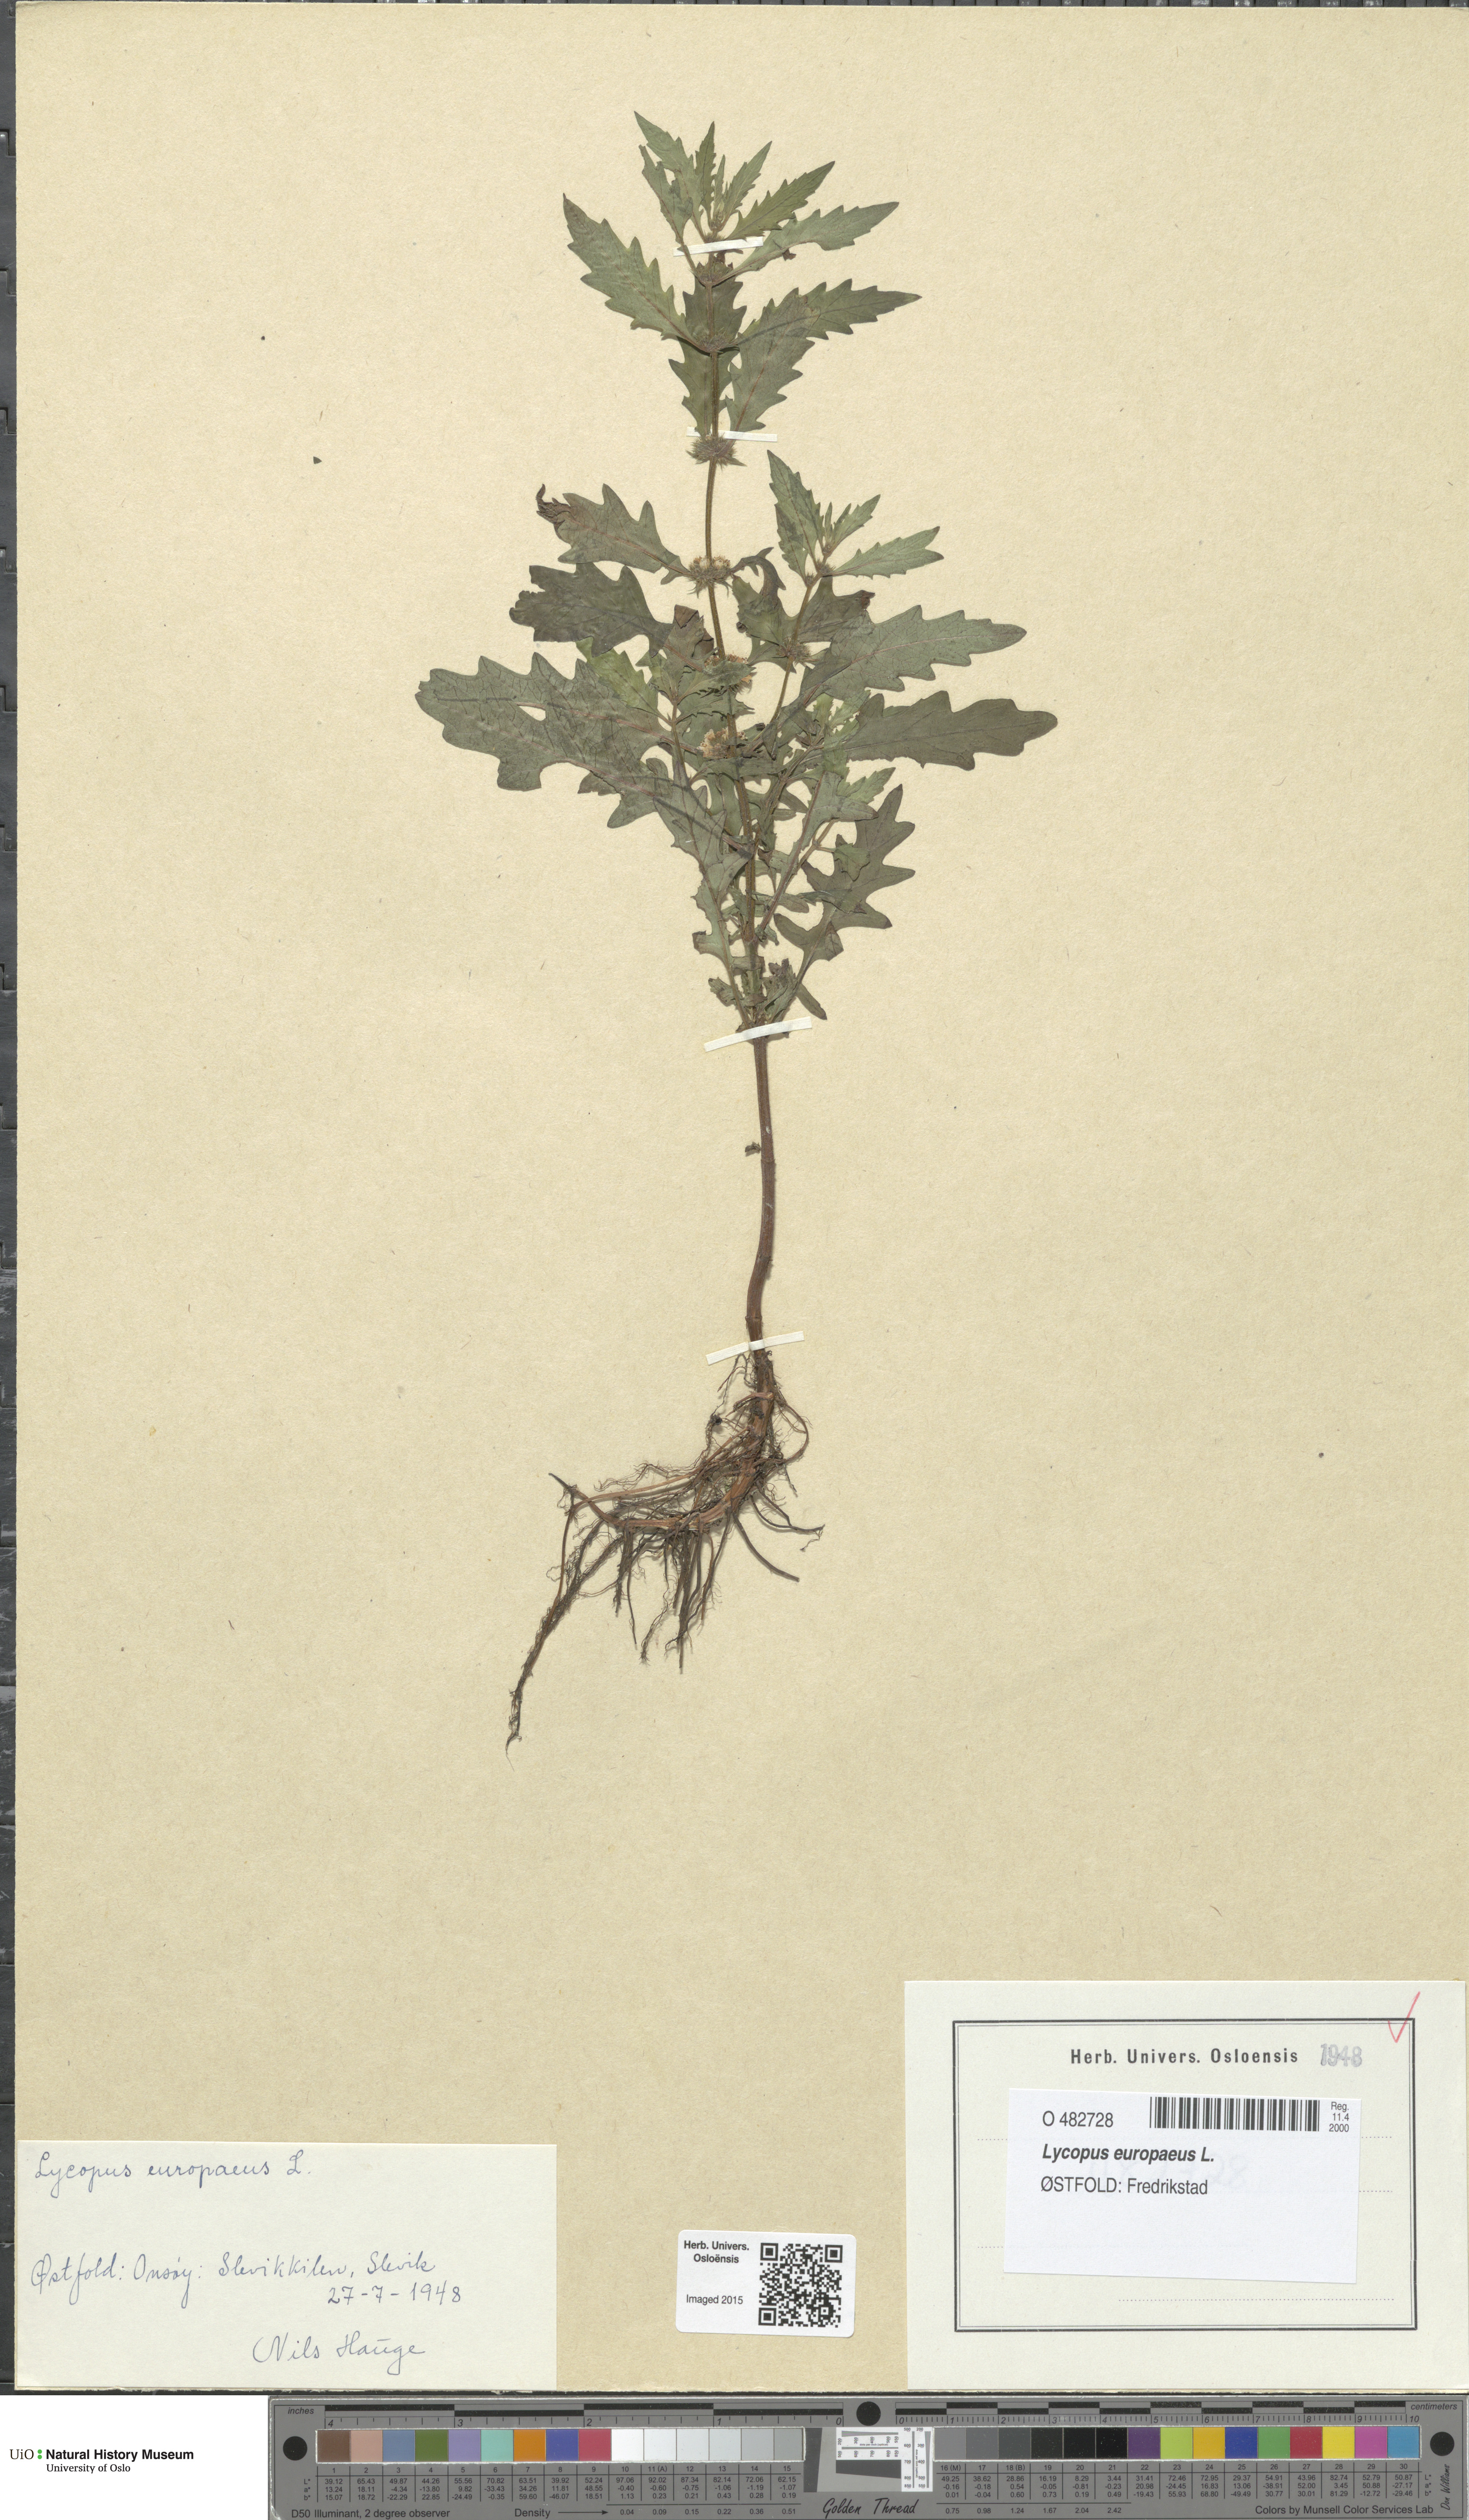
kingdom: Plantae
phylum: Tracheophyta
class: Magnoliopsida
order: Lamiales
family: Lamiaceae
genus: Lycopus
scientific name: Lycopus europaeus
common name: European bugleweed
